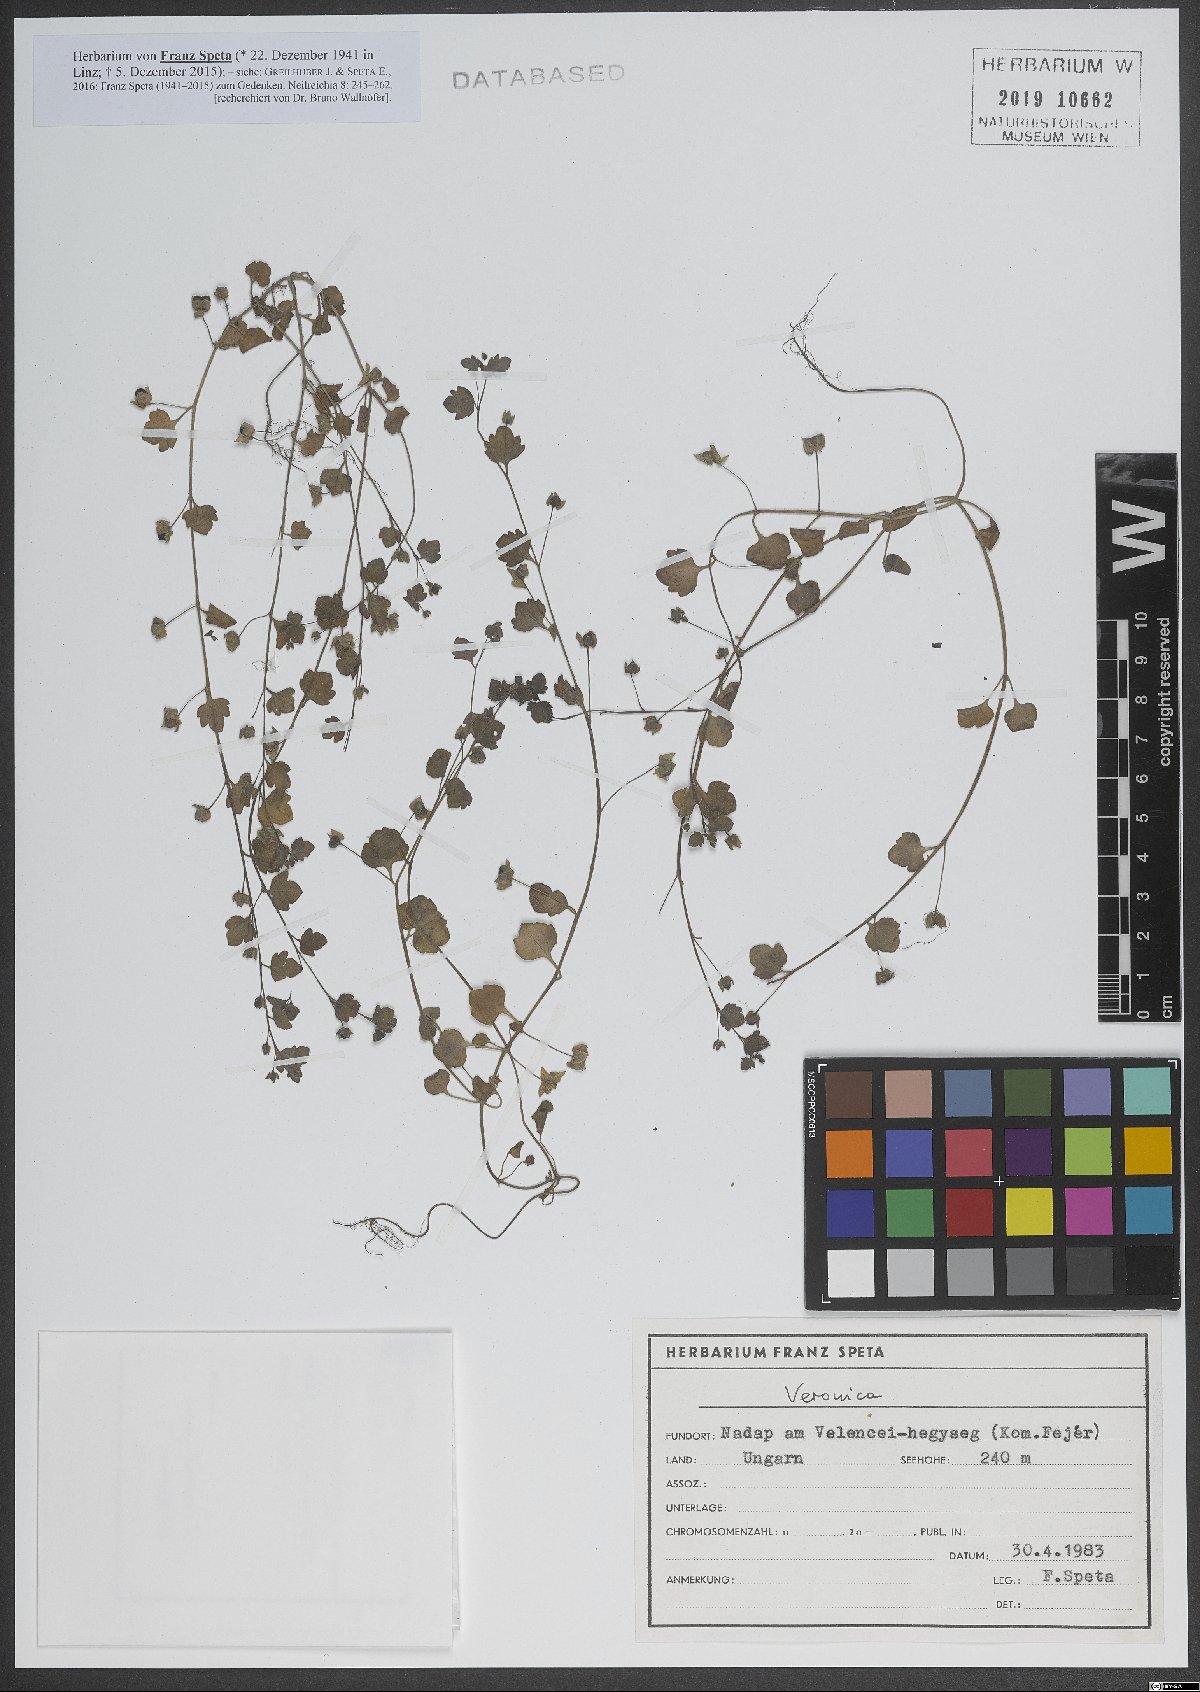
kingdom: Plantae
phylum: Tracheophyta
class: Magnoliopsida
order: Lamiales
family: Plantaginaceae
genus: Veronica
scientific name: Veronica
